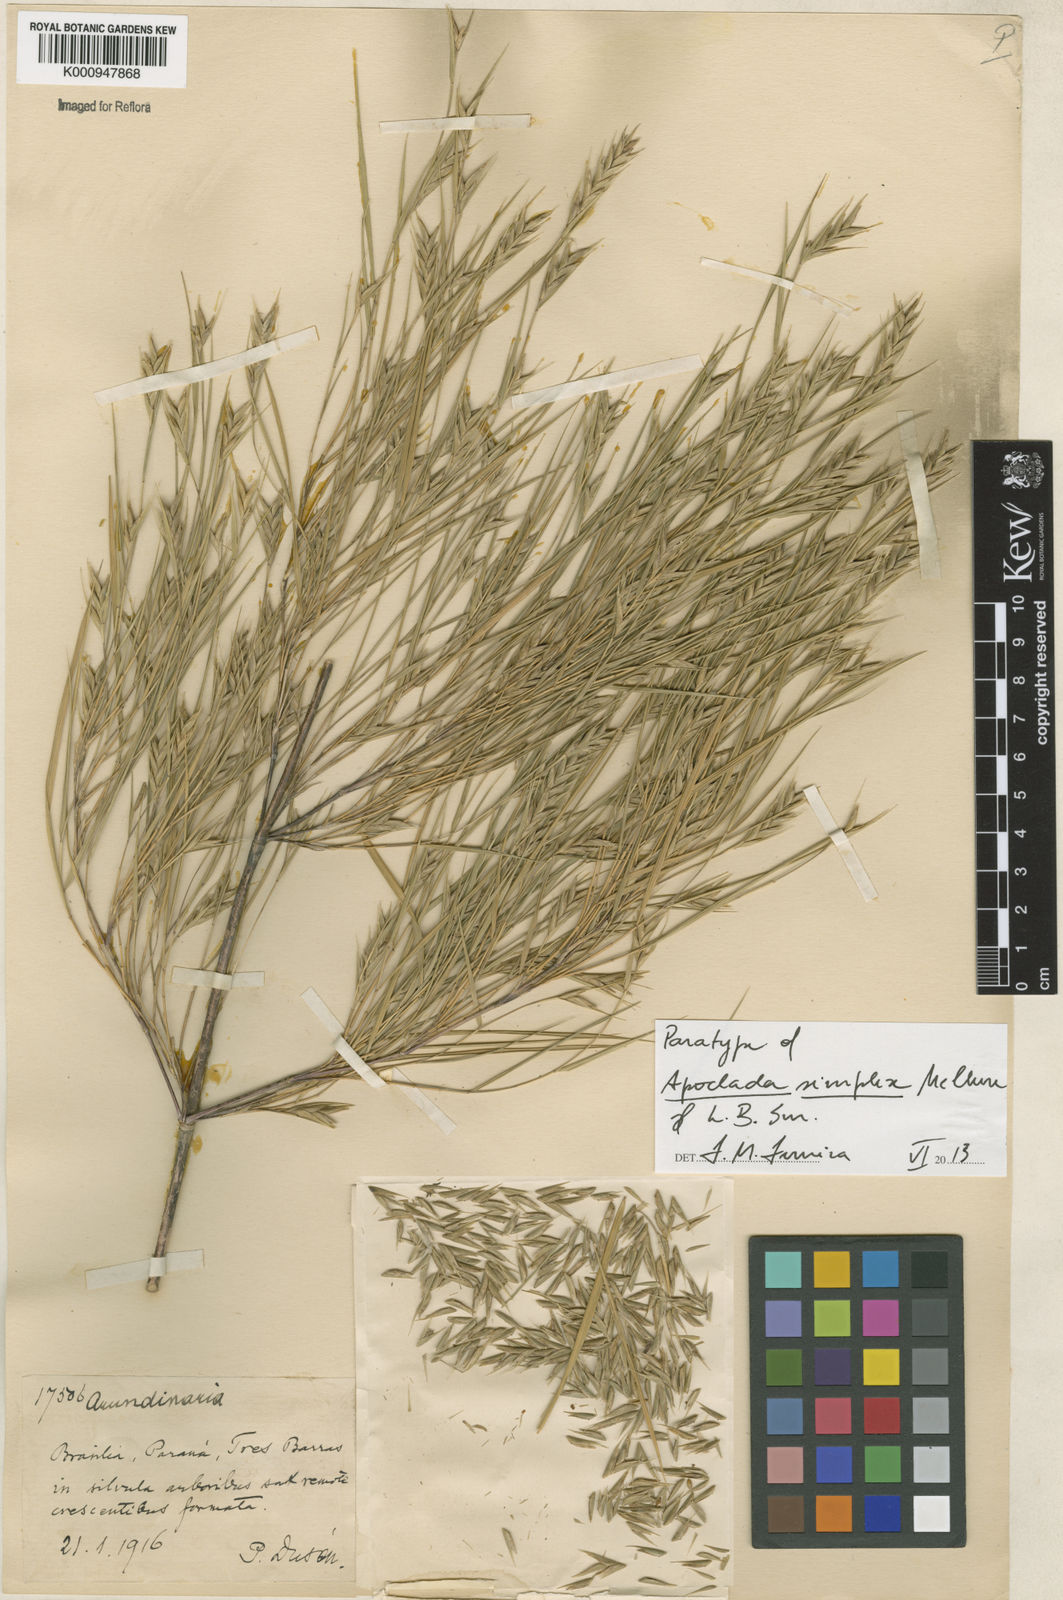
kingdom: Plantae
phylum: Tracheophyta
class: Liliopsida
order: Poales
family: Poaceae
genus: Apoclada
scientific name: Apoclada simplex
